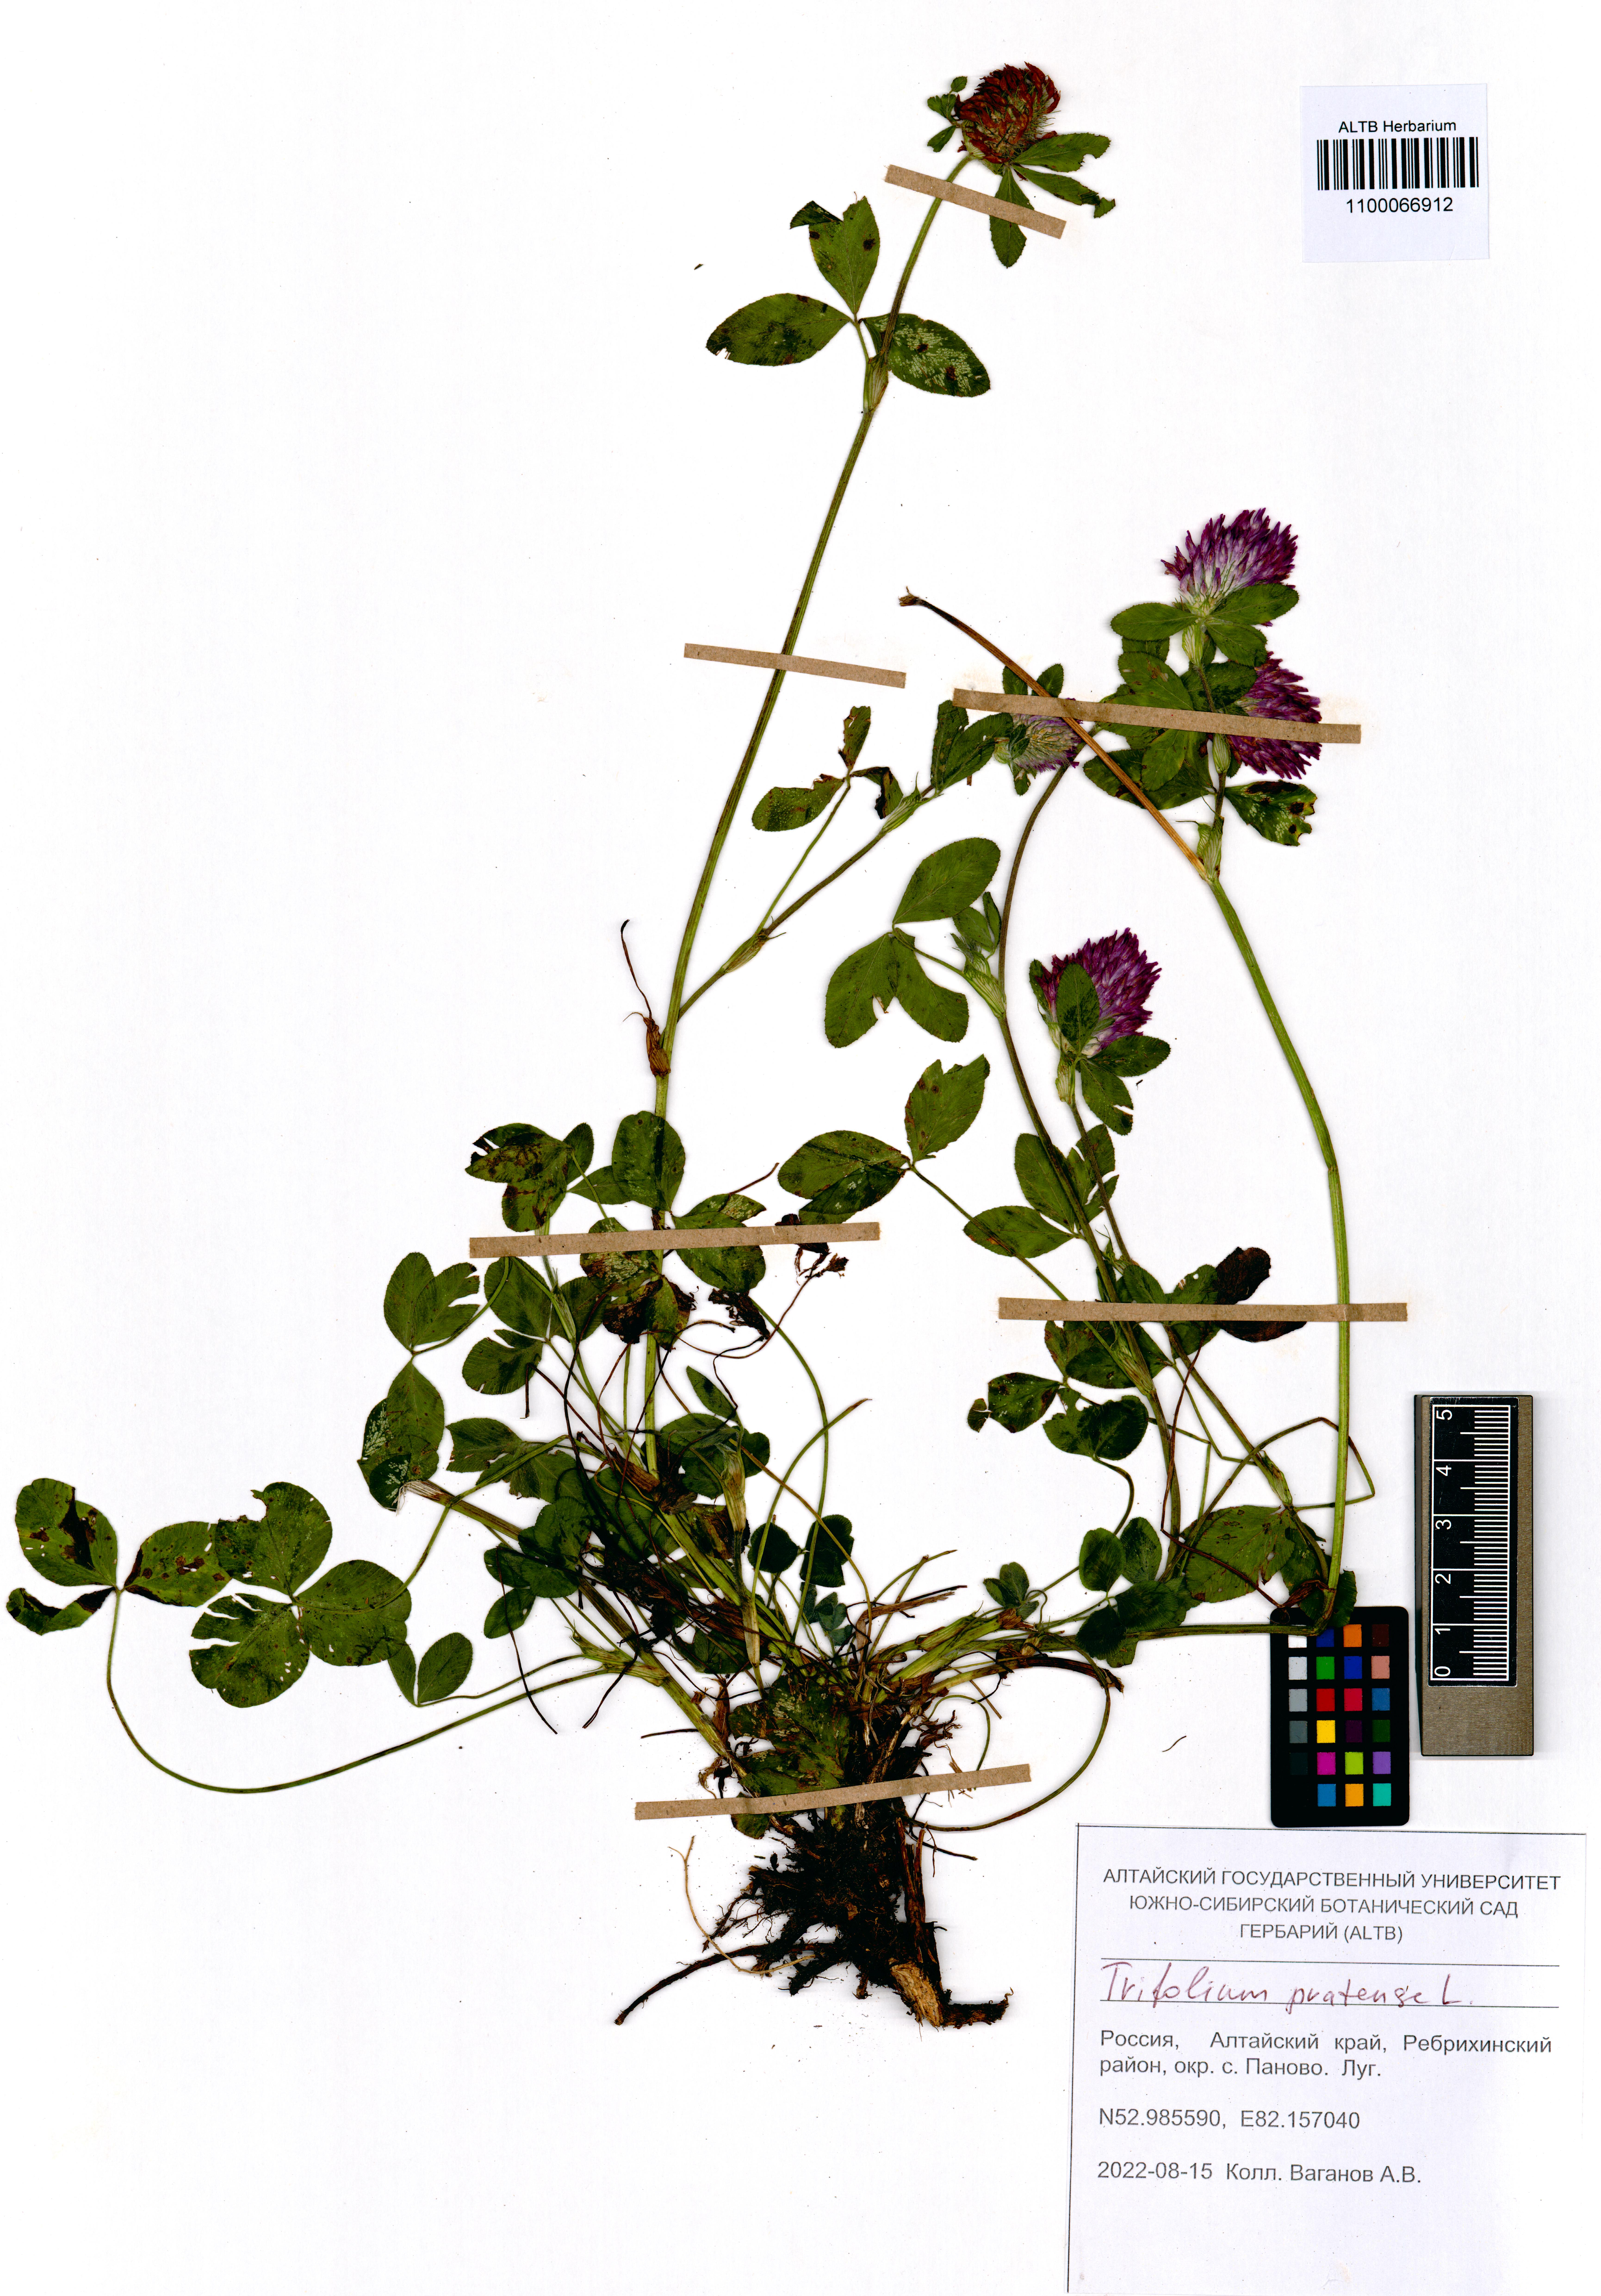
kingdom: Plantae
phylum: Tracheophyta
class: Magnoliopsida
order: Fabales
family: Fabaceae
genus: Trifolium
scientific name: Trifolium pratense
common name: Red clover
